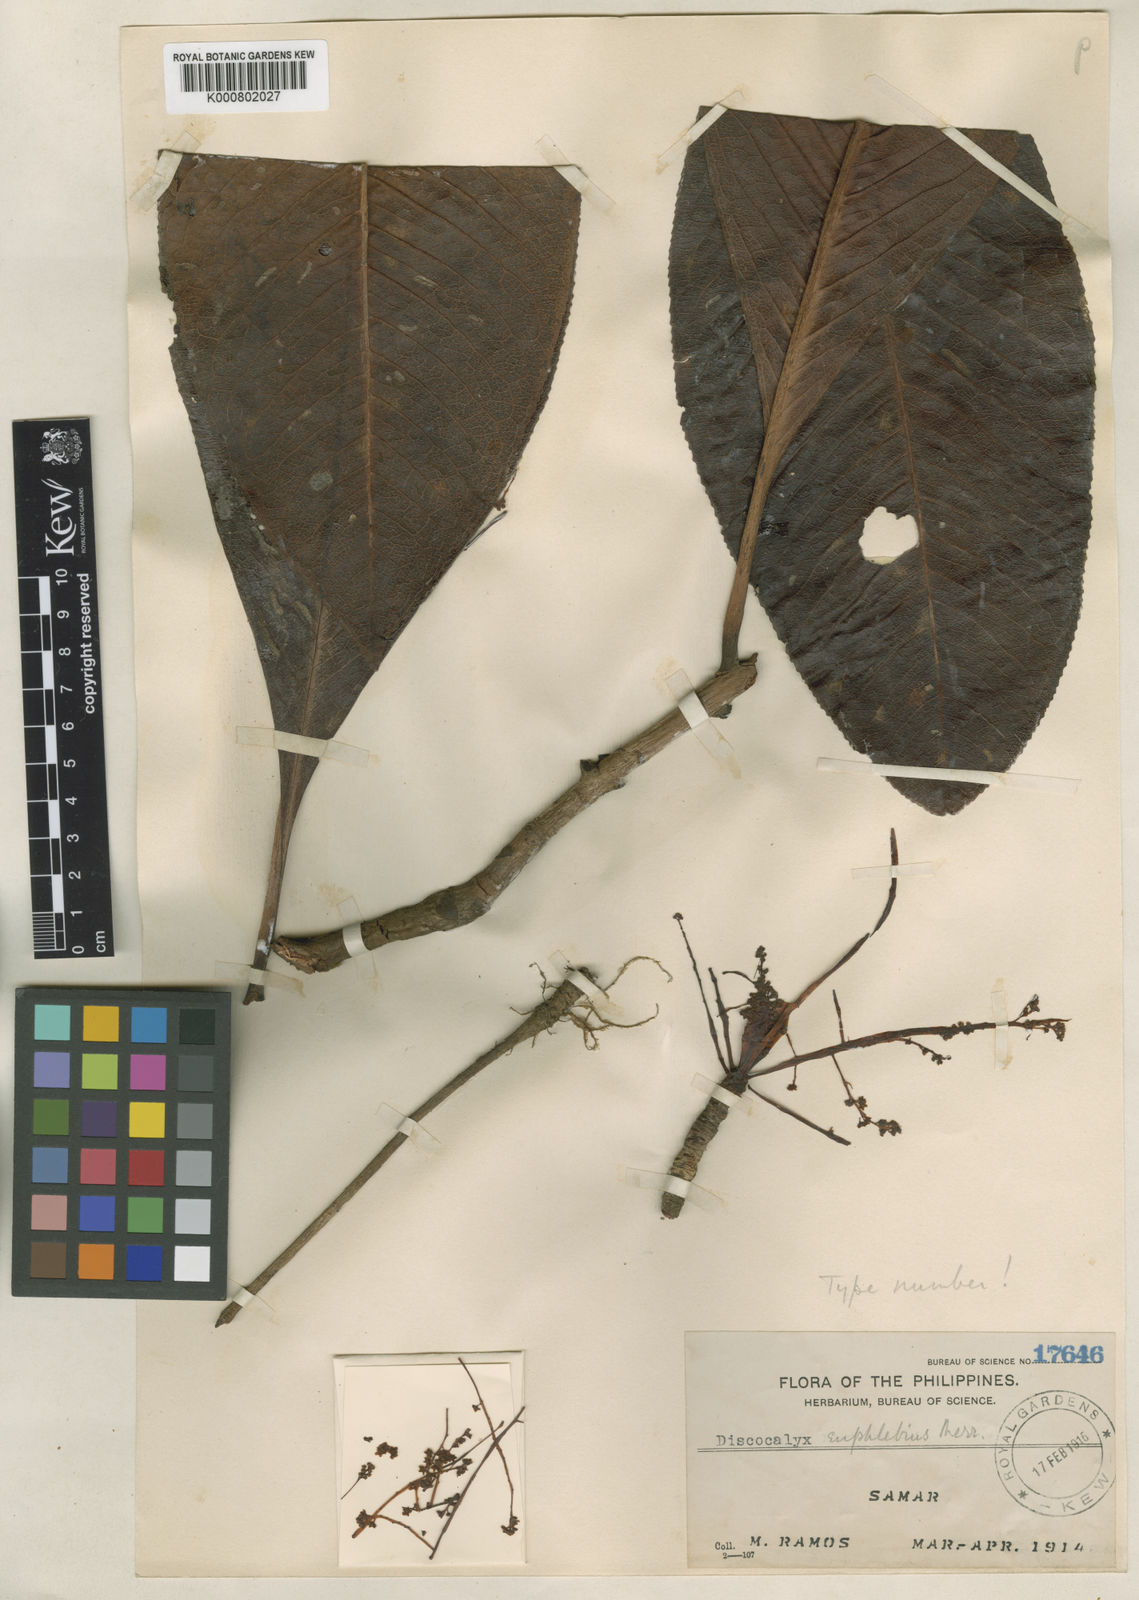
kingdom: Plantae
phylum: Tracheophyta
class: Magnoliopsida
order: Ericales
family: Primulaceae
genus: Discocalyx
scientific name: Discocalyx euphlebia
